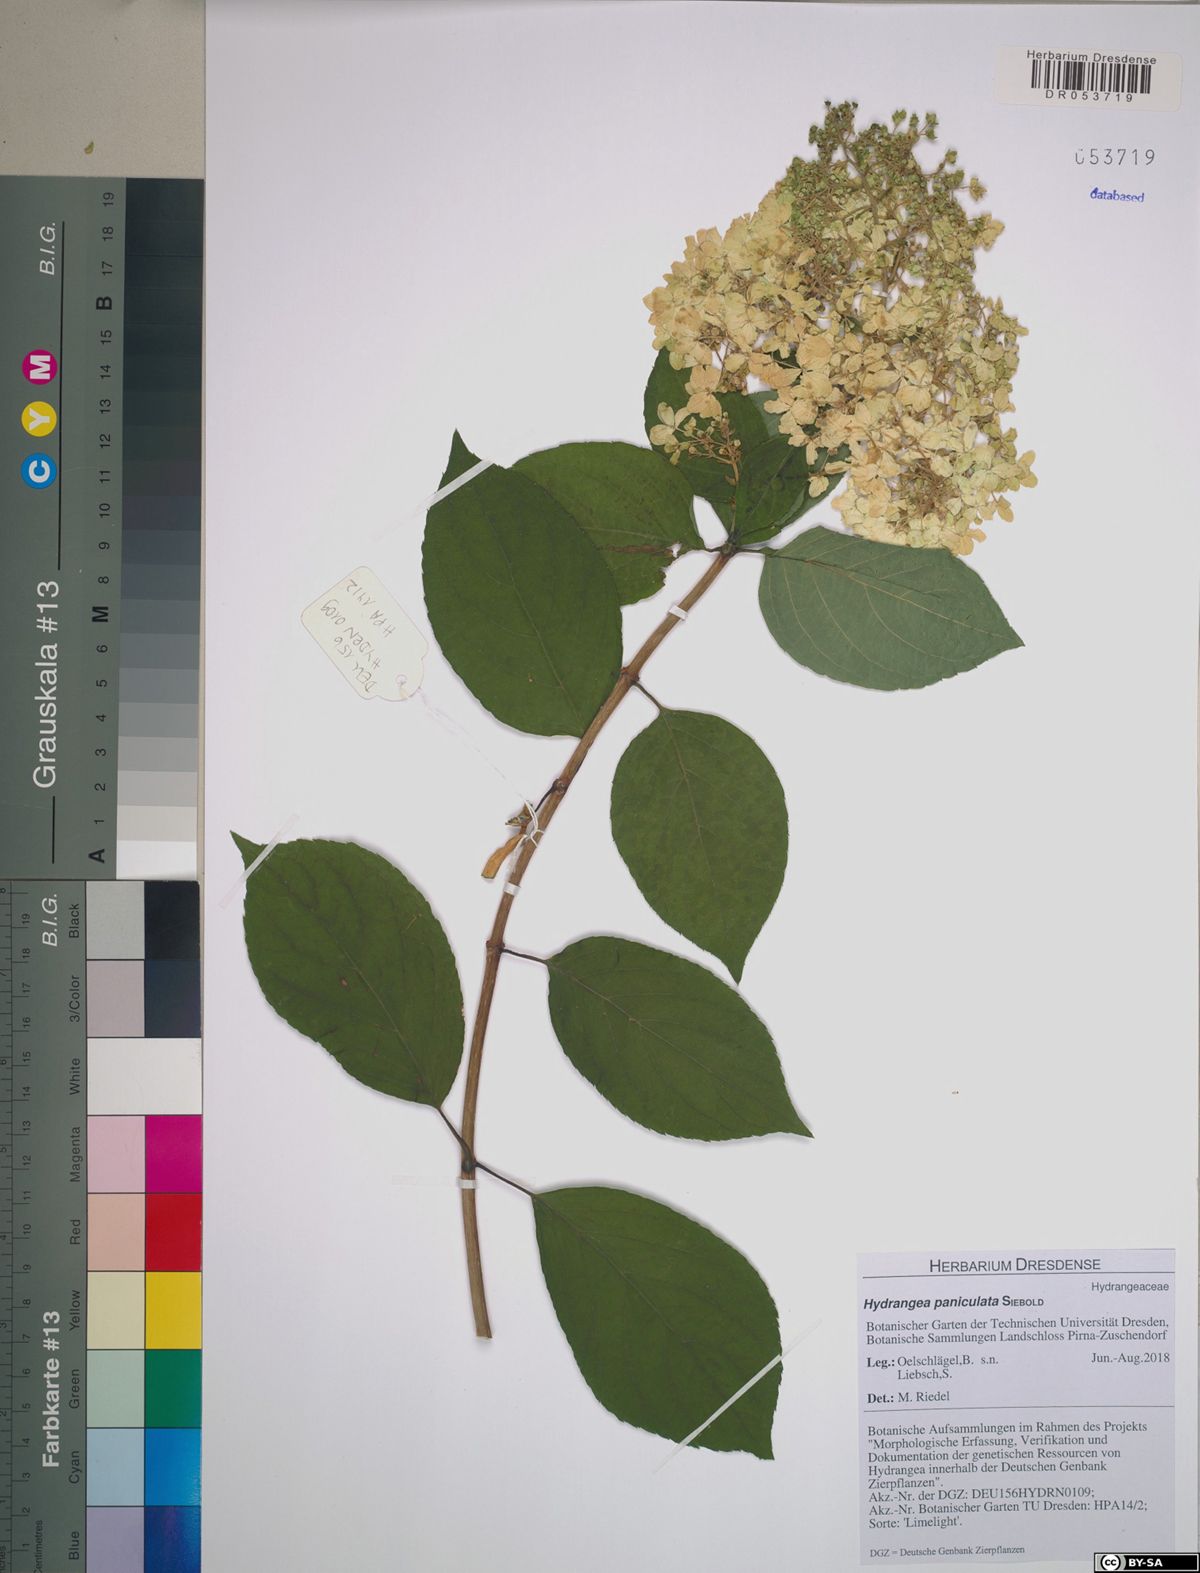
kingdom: Plantae
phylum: Tracheophyta
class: Magnoliopsida
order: Cornales
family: Hydrangeaceae
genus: Hydrangea
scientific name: Hydrangea paniculata
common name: Panicled hydrangea
